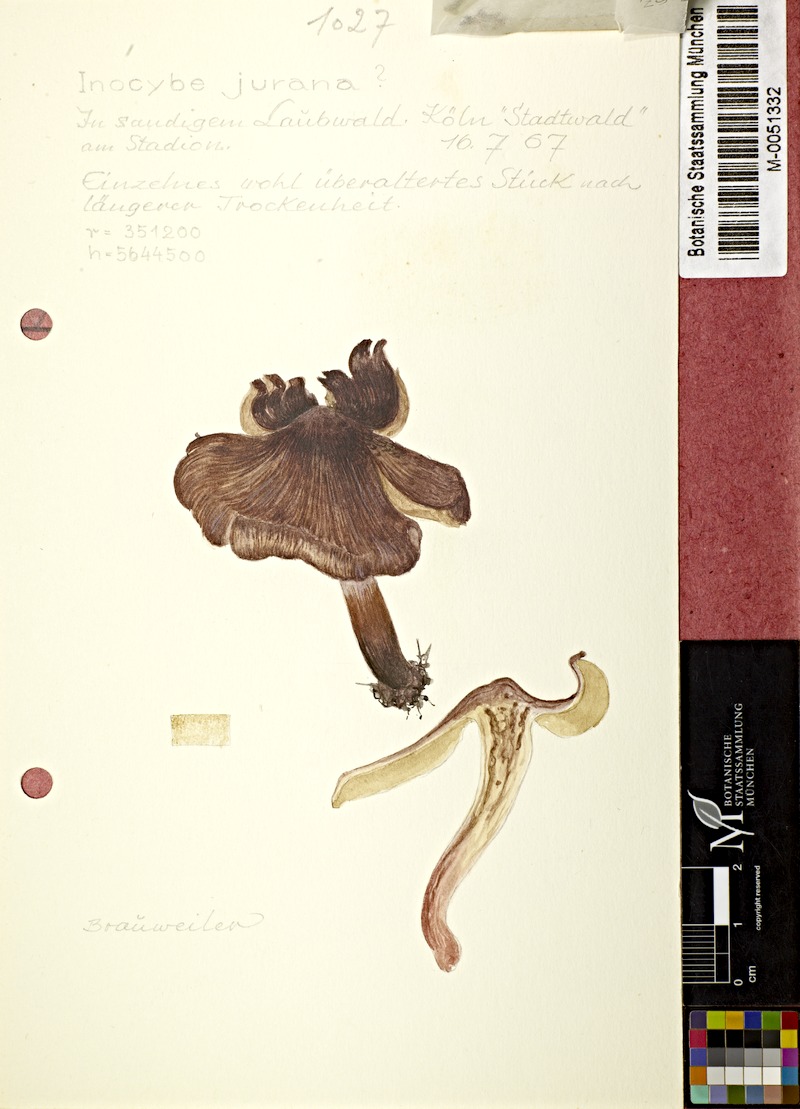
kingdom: Fungi
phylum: Basidiomycota
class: Agaricomycetes
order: Agaricales
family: Inocybaceae
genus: Inosperma
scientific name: Inosperma adaequatum
